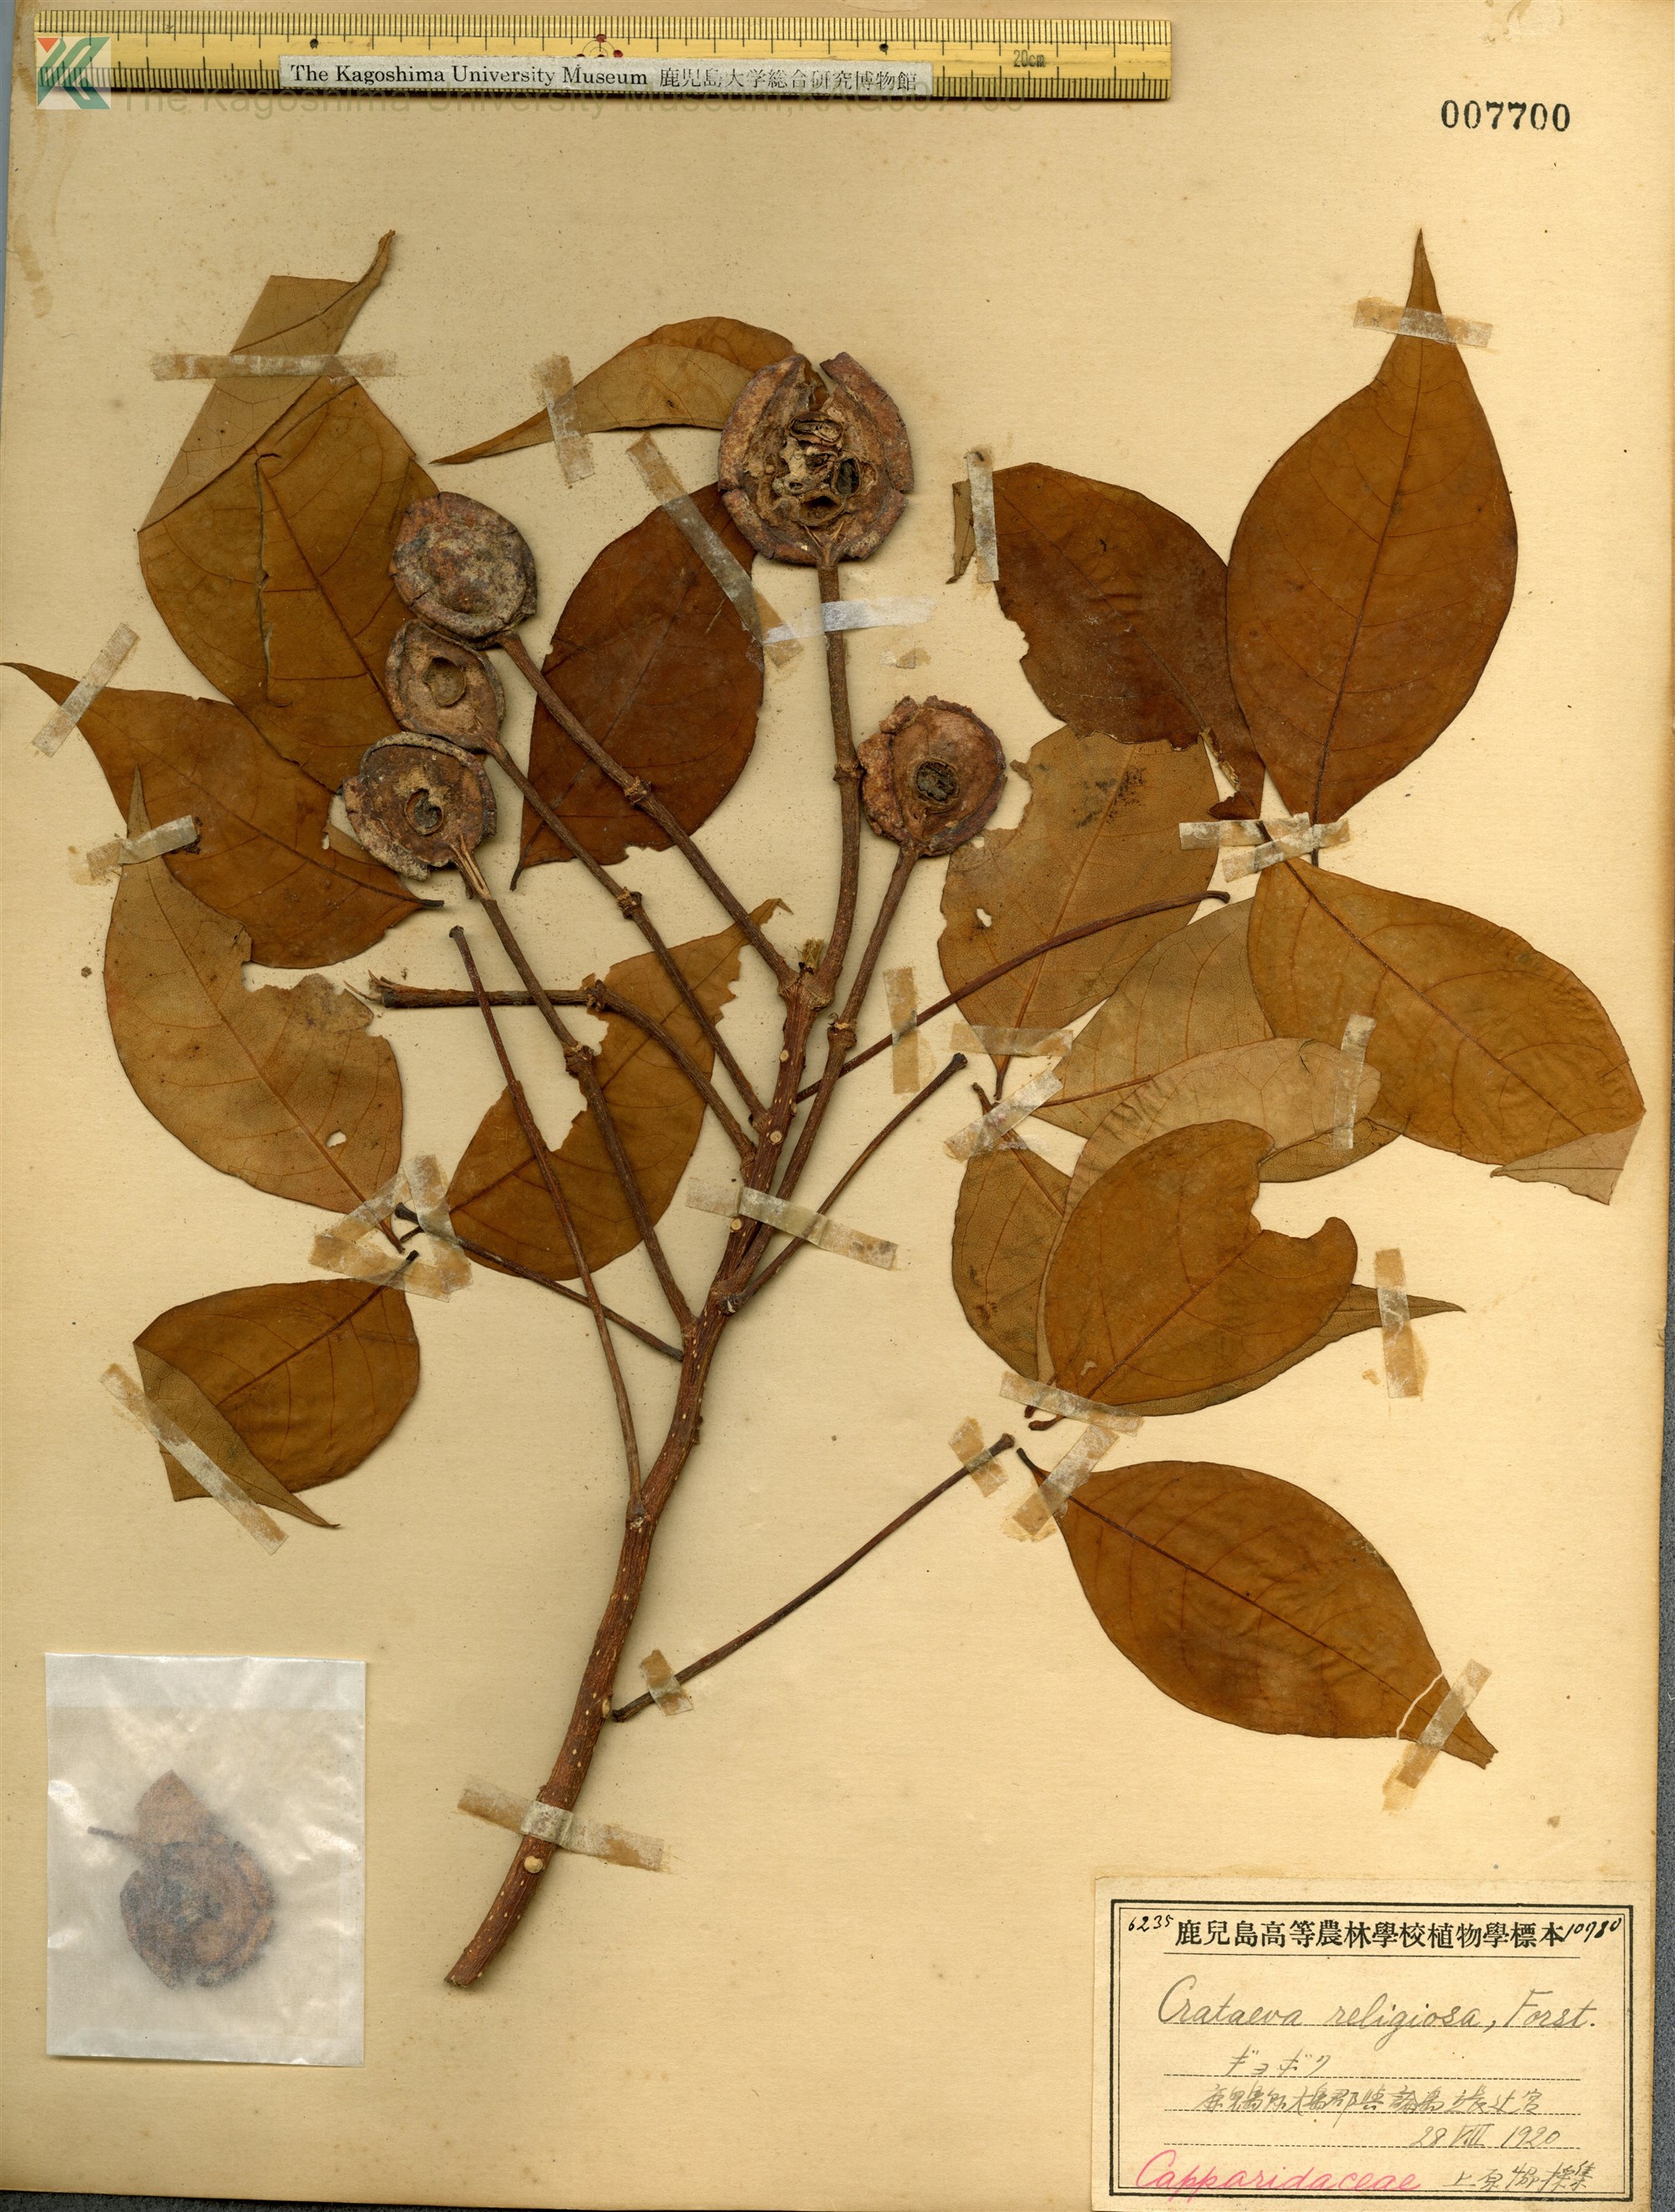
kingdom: Plantae
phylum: Tracheophyta
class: Magnoliopsida
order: Brassicales
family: Capparaceae
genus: Crateva
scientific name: Crateva formosensis
